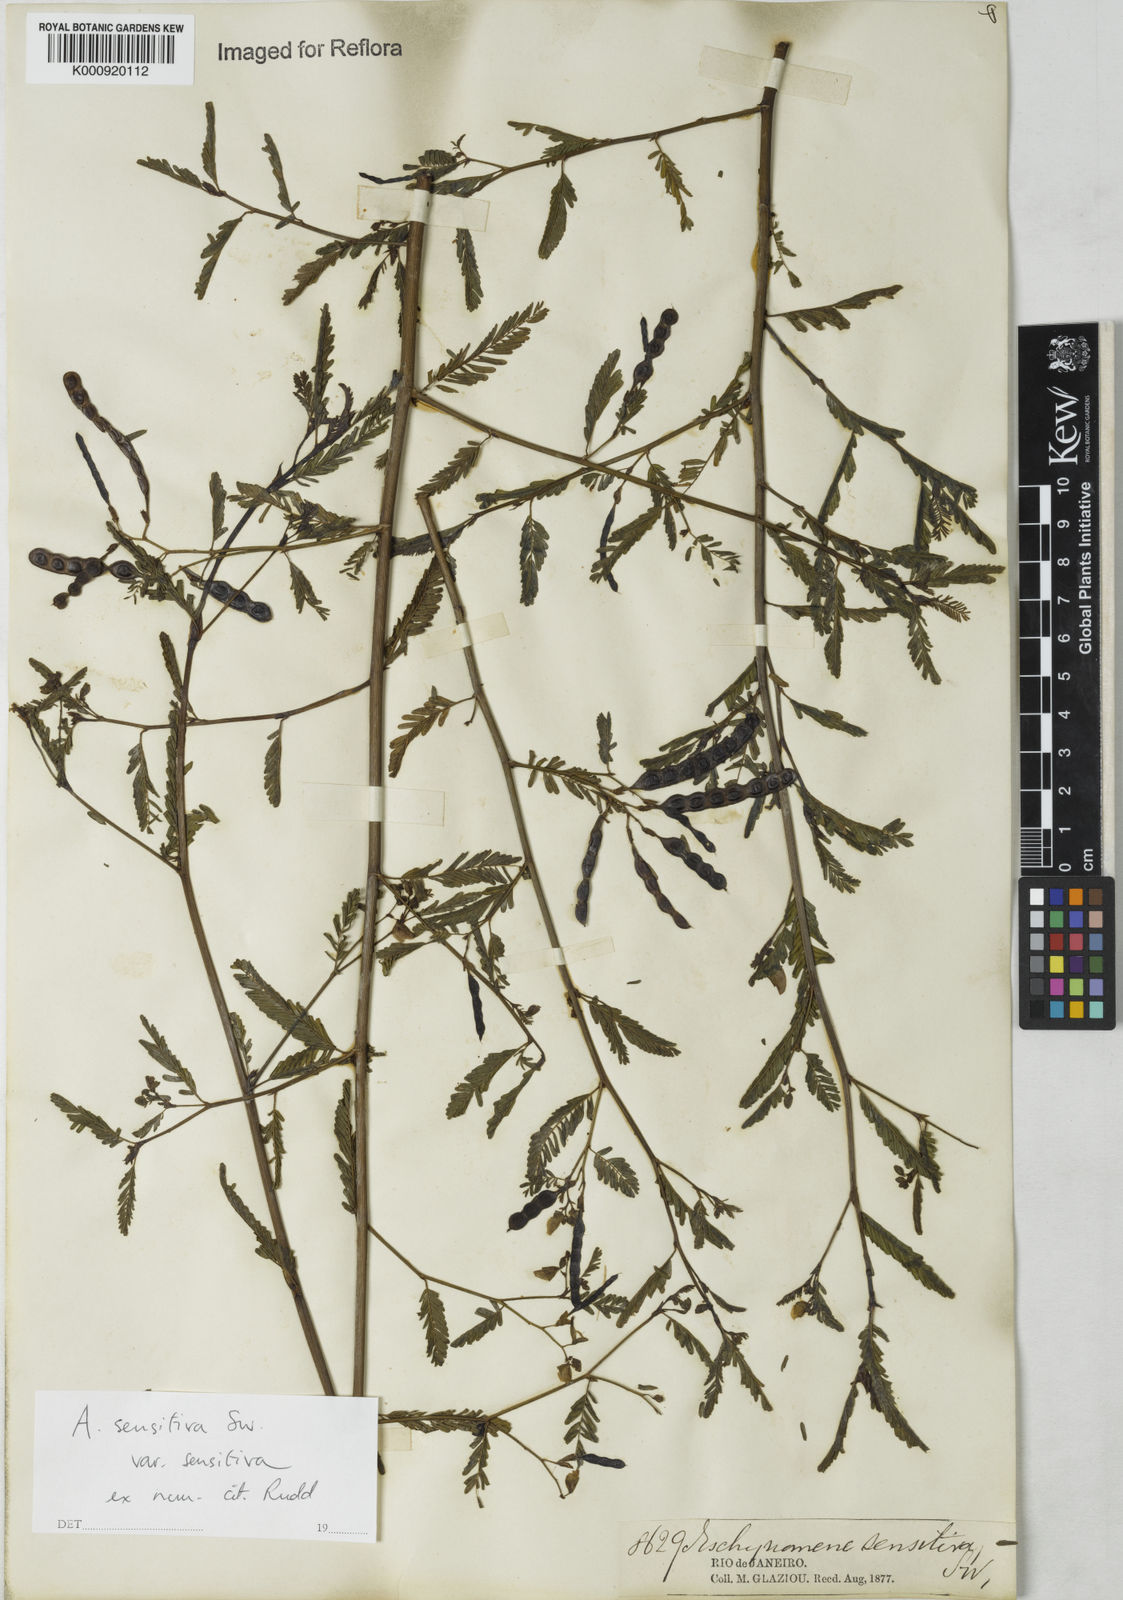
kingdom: Plantae
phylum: Tracheophyta
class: Magnoliopsida
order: Fabales
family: Fabaceae
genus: Aeschynomene
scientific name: Aeschynomene sensitiva
